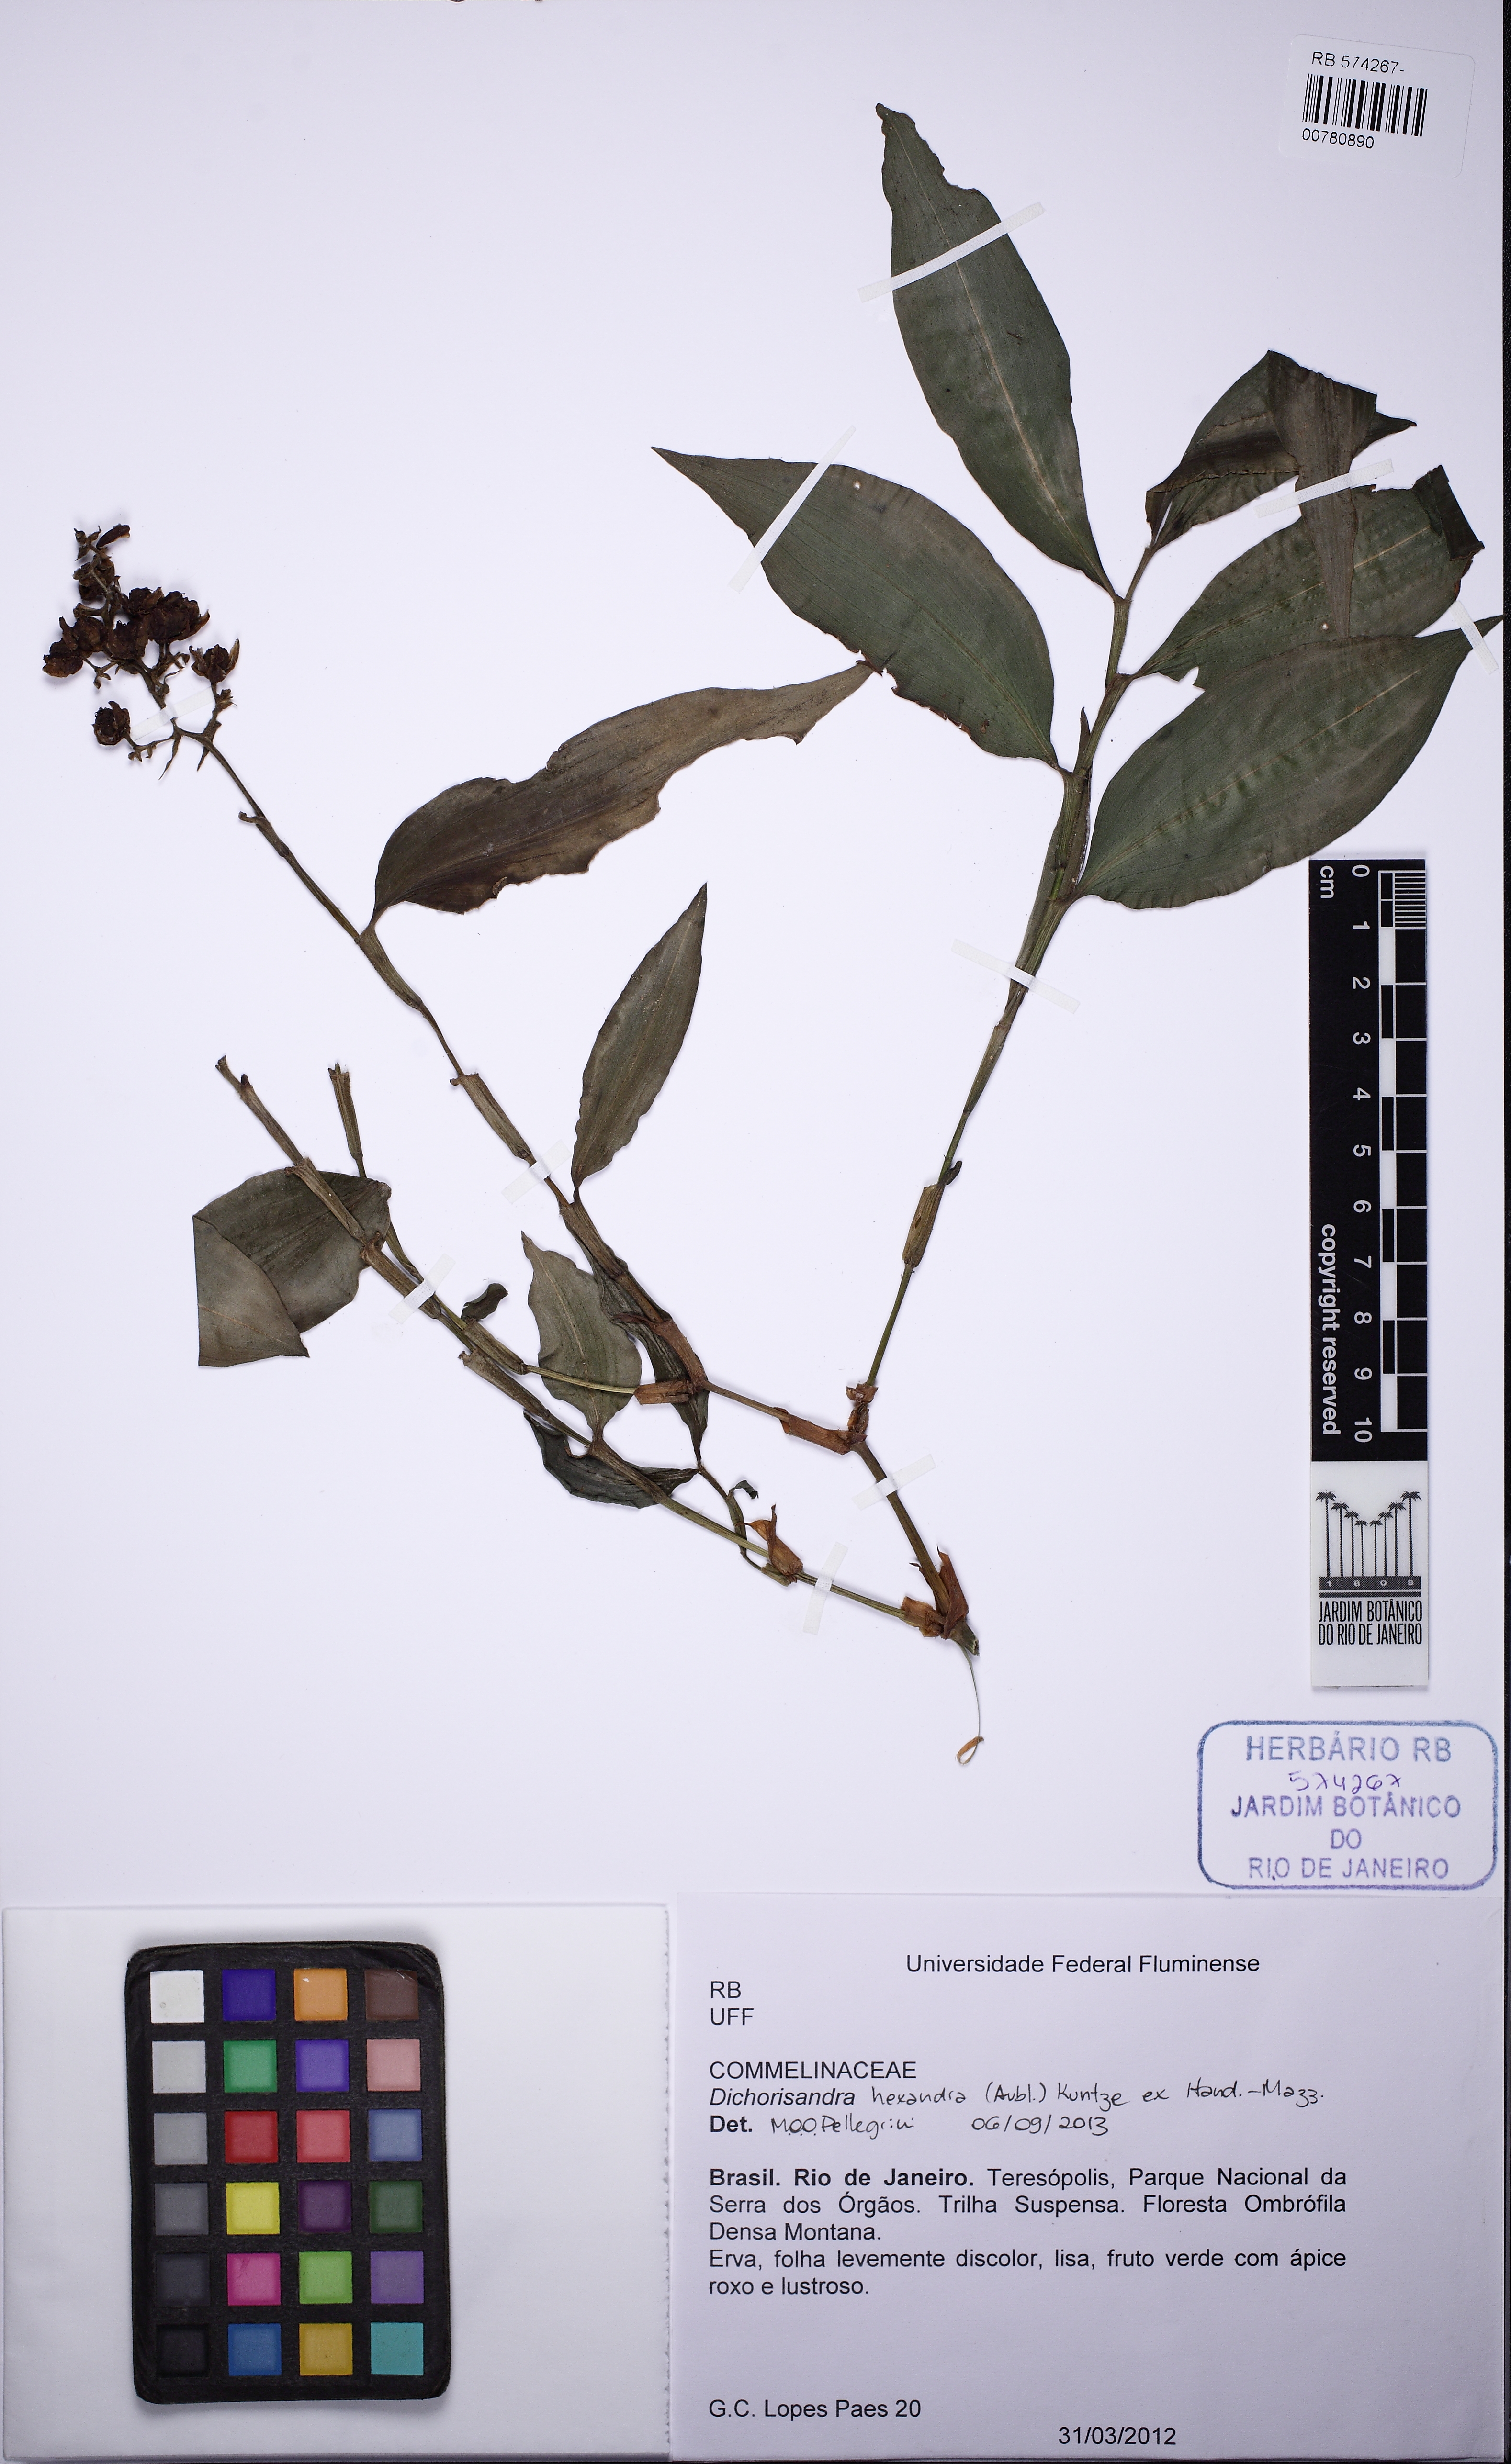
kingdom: Plantae
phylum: Tracheophyta
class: Liliopsida
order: Commelinales
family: Commelinaceae
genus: Dichorisandra
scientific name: Dichorisandra hexandra
